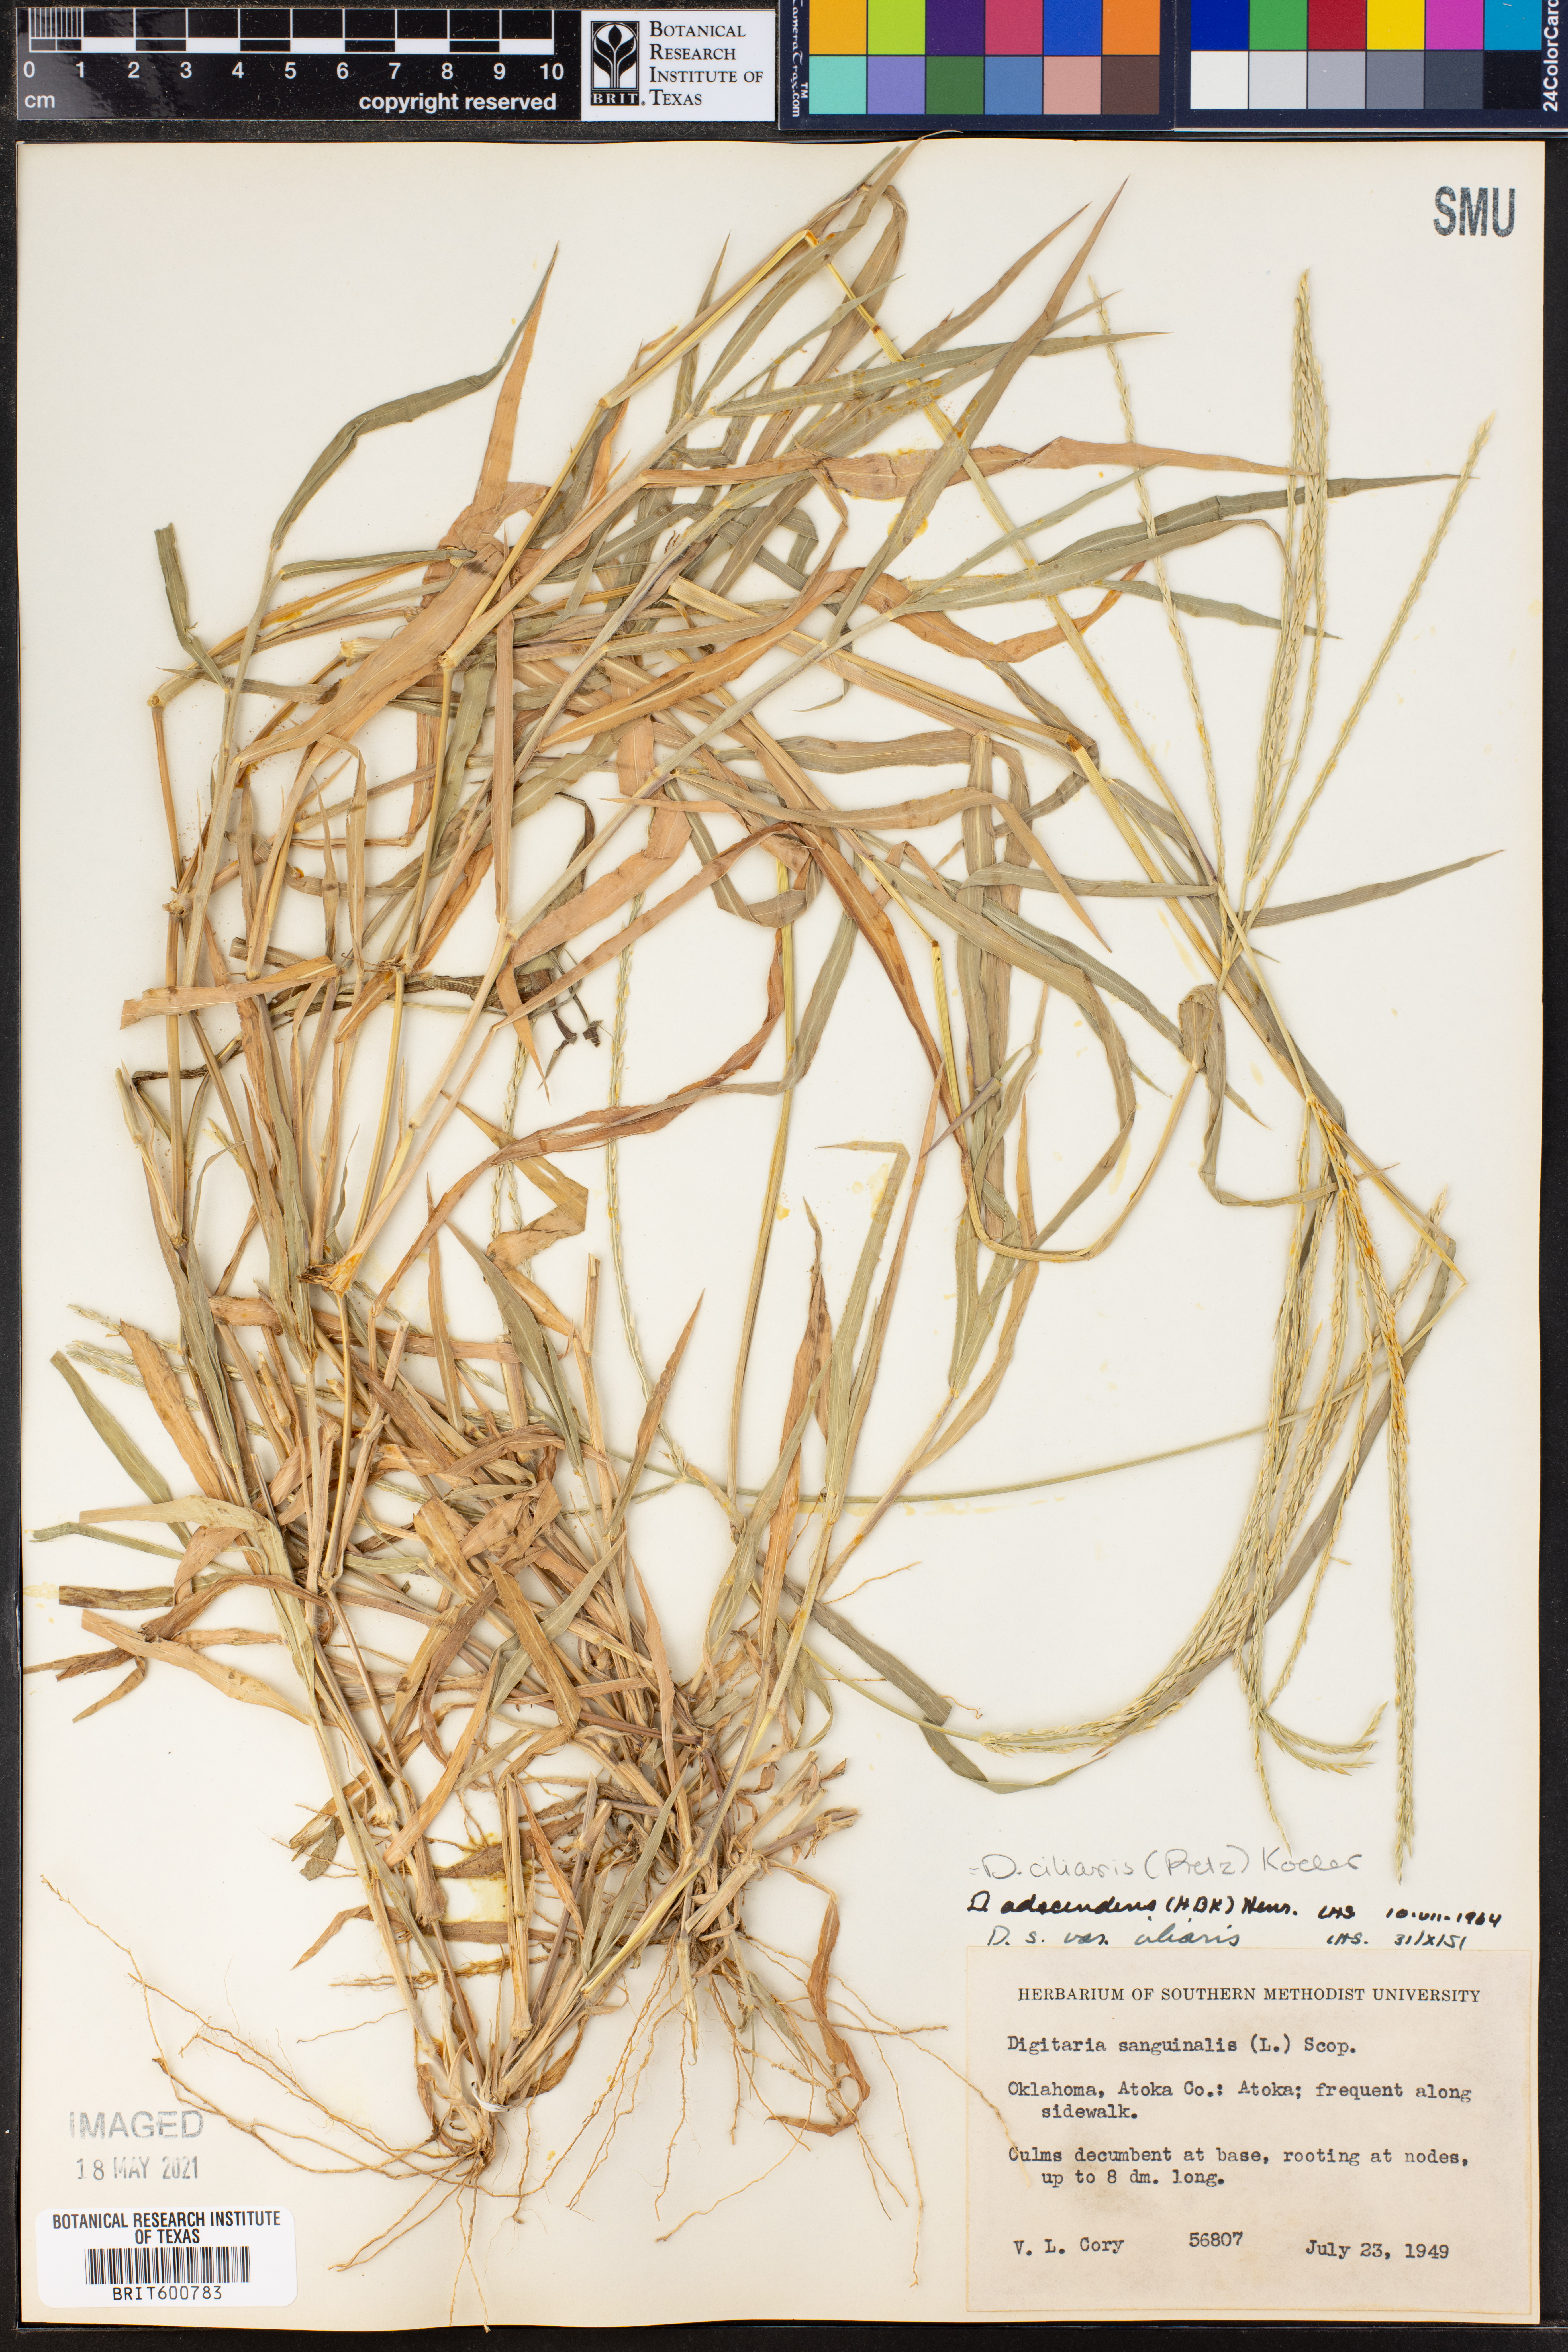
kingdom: Plantae
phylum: Tracheophyta
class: Liliopsida
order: Poales
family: Poaceae
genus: Digitaria
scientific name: Digitaria ciliaris
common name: Tropical finger-grass
